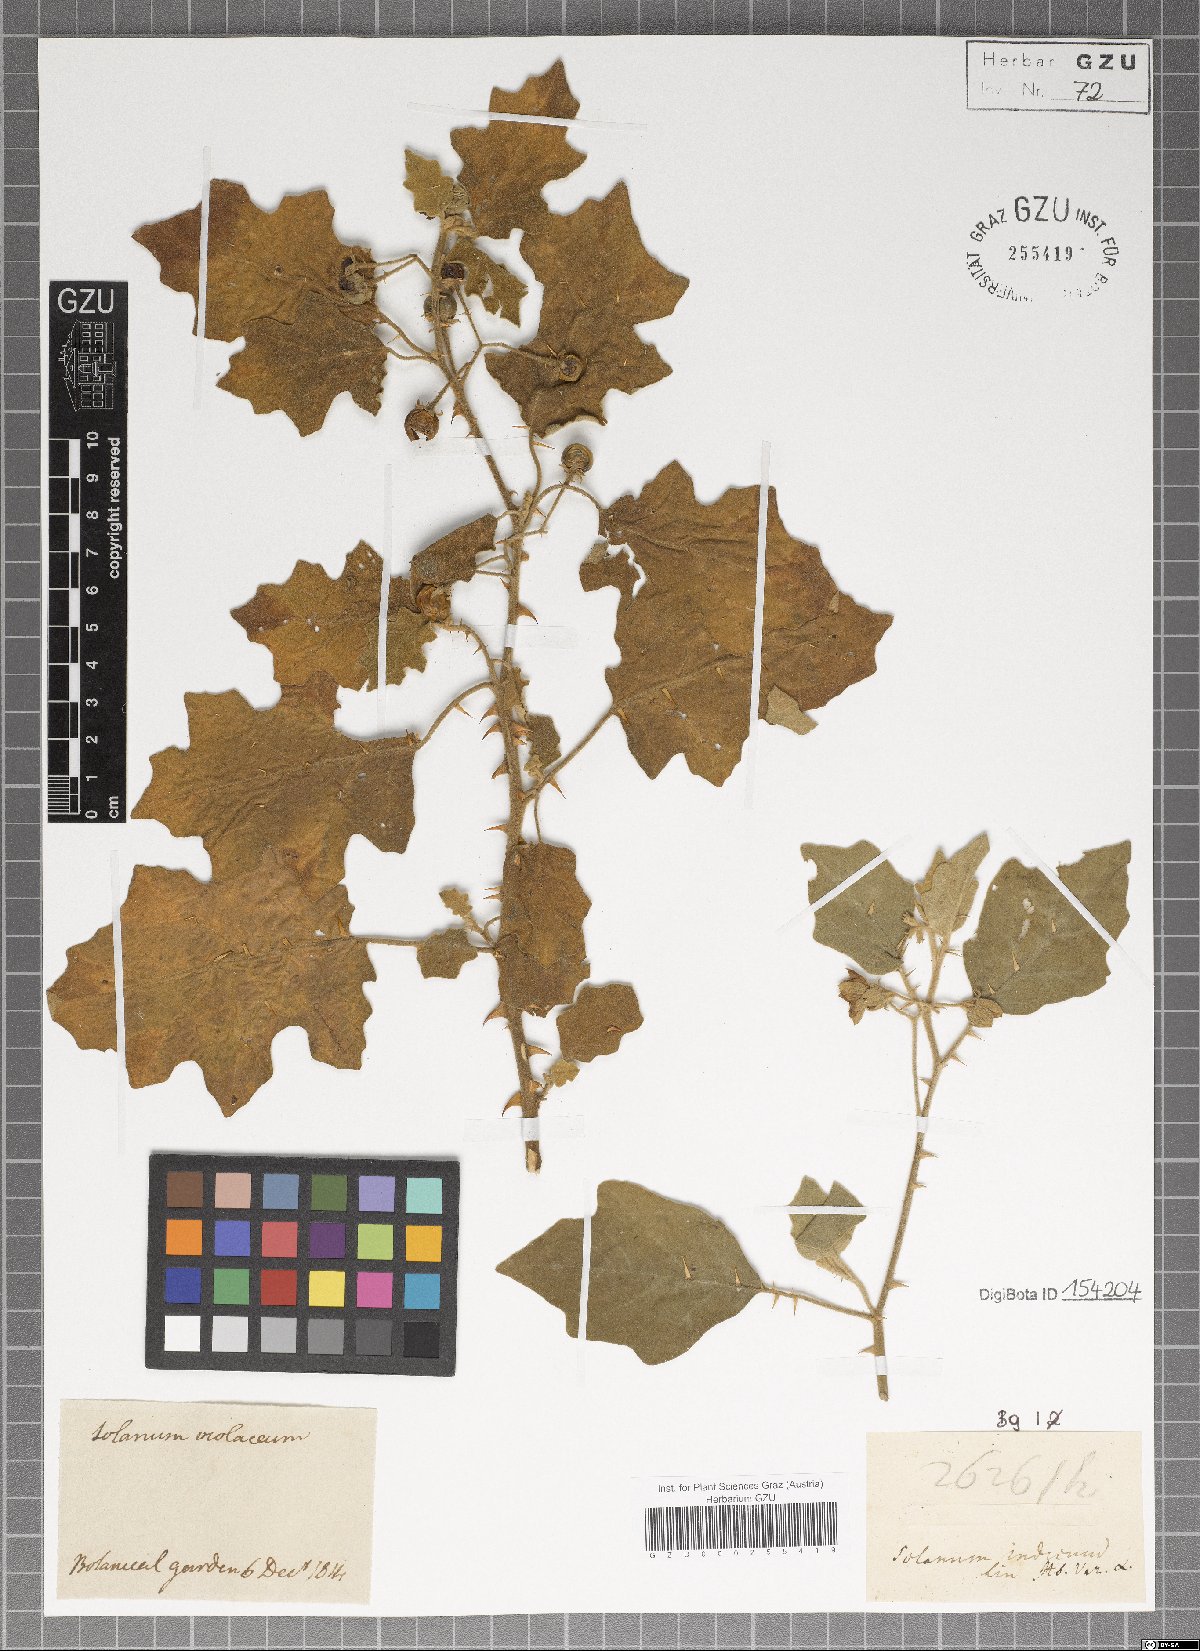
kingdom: Plantae
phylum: Tracheophyta
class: Magnoliopsida
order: Solanales
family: Solanaceae
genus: Solanum
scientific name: Solanum violaceum
